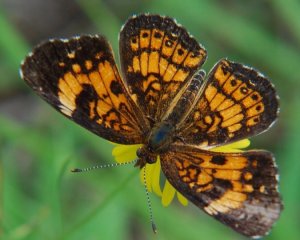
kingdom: Animalia
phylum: Arthropoda
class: Insecta
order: Lepidoptera
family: Nymphalidae
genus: Chlosyne
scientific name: Chlosyne nycteis
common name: Silvery Checkerspot
